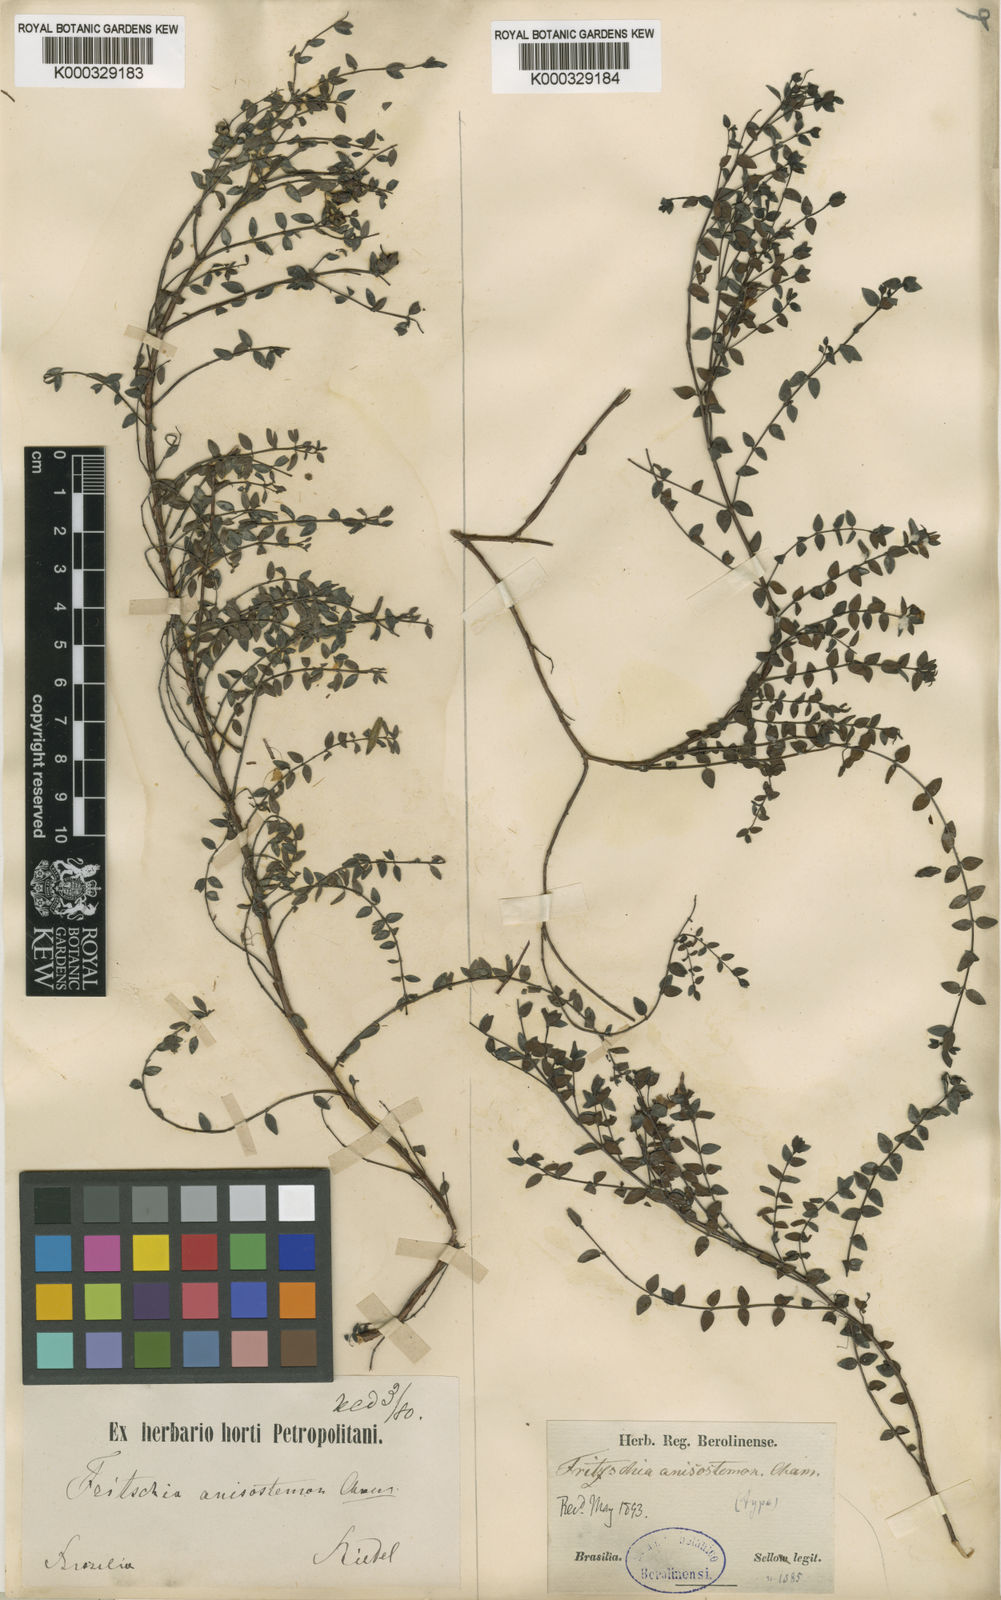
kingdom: Plantae
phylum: Tracheophyta
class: Magnoliopsida
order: Myrtales
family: Melastomataceae
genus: Fritzschia
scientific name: Fritzschia anisostemon
